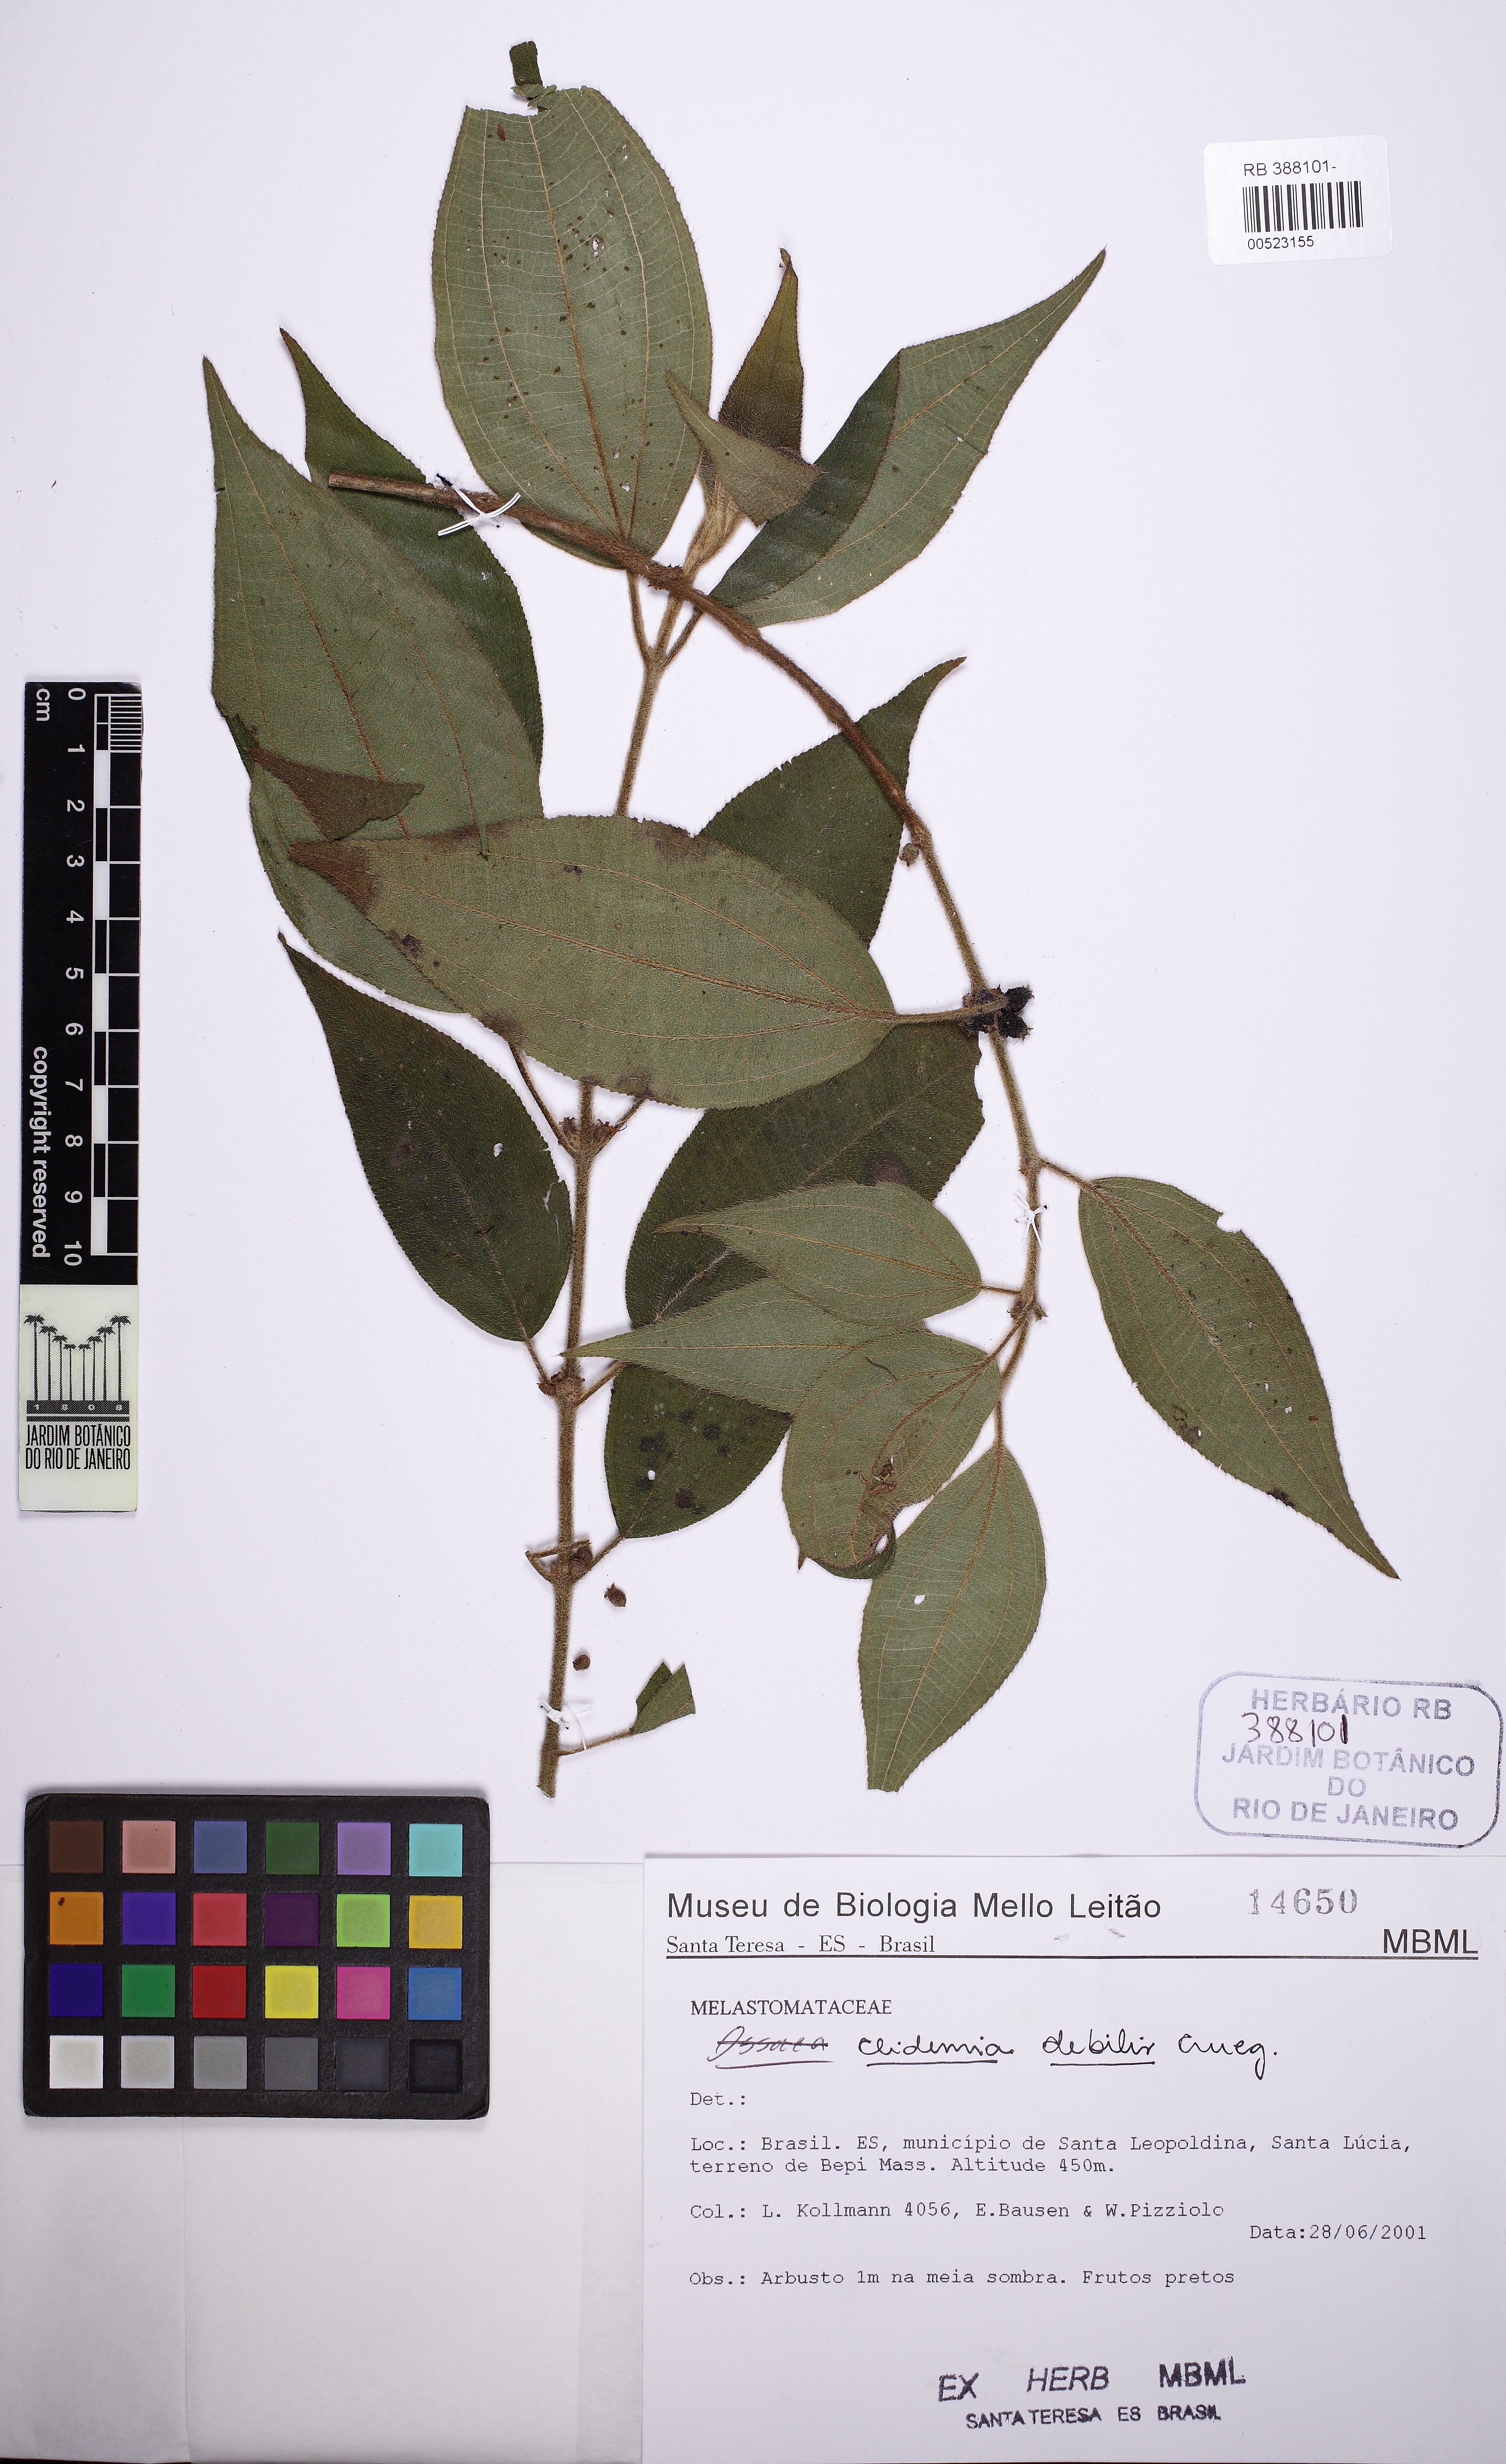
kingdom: Plantae
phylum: Tracheophyta
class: Magnoliopsida
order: Myrtales
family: Melastomataceae
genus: Miconia
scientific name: Miconia debilis
